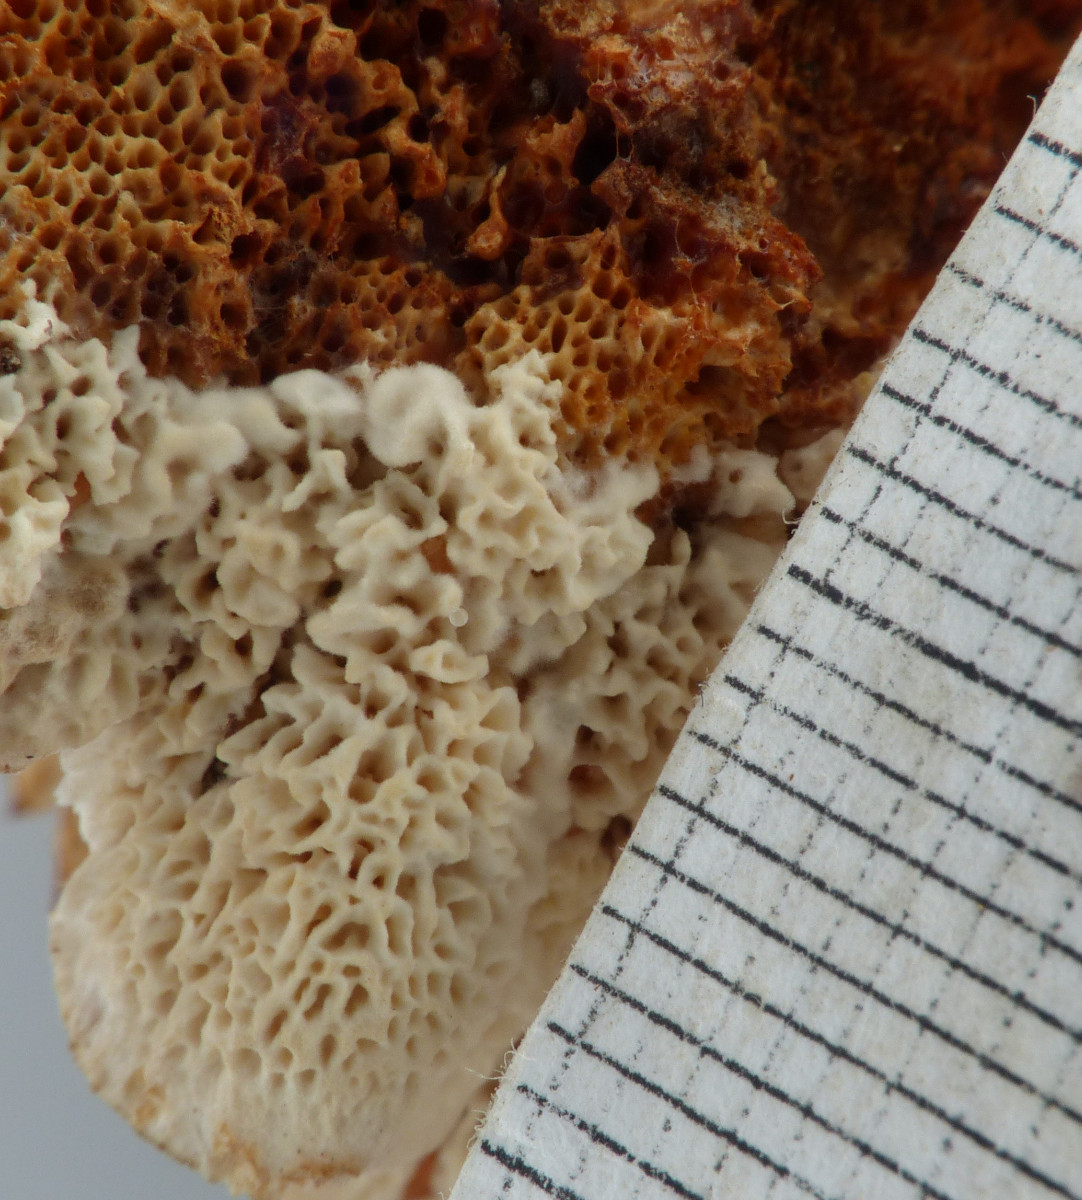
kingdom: Fungi
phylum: Basidiomycota
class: Agaricomycetes
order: Polyporales
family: Polyporaceae
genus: Trametes
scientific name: Trametes versicolor
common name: broget læderporesvamp
